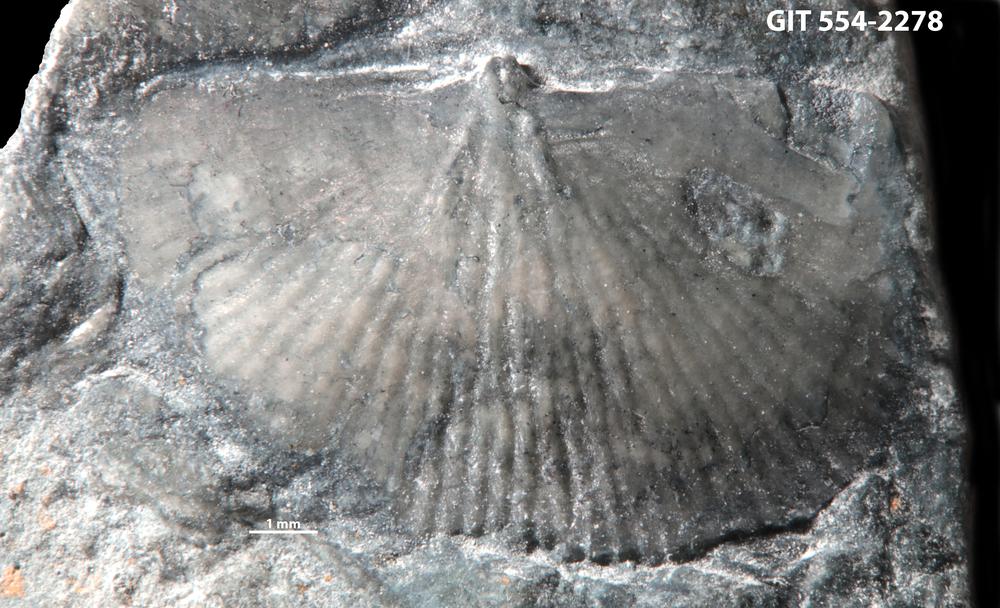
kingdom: Animalia
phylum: Brachiopoda
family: Strophochonetidae
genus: Protochonetes
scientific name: Protochonetes piltenensis
